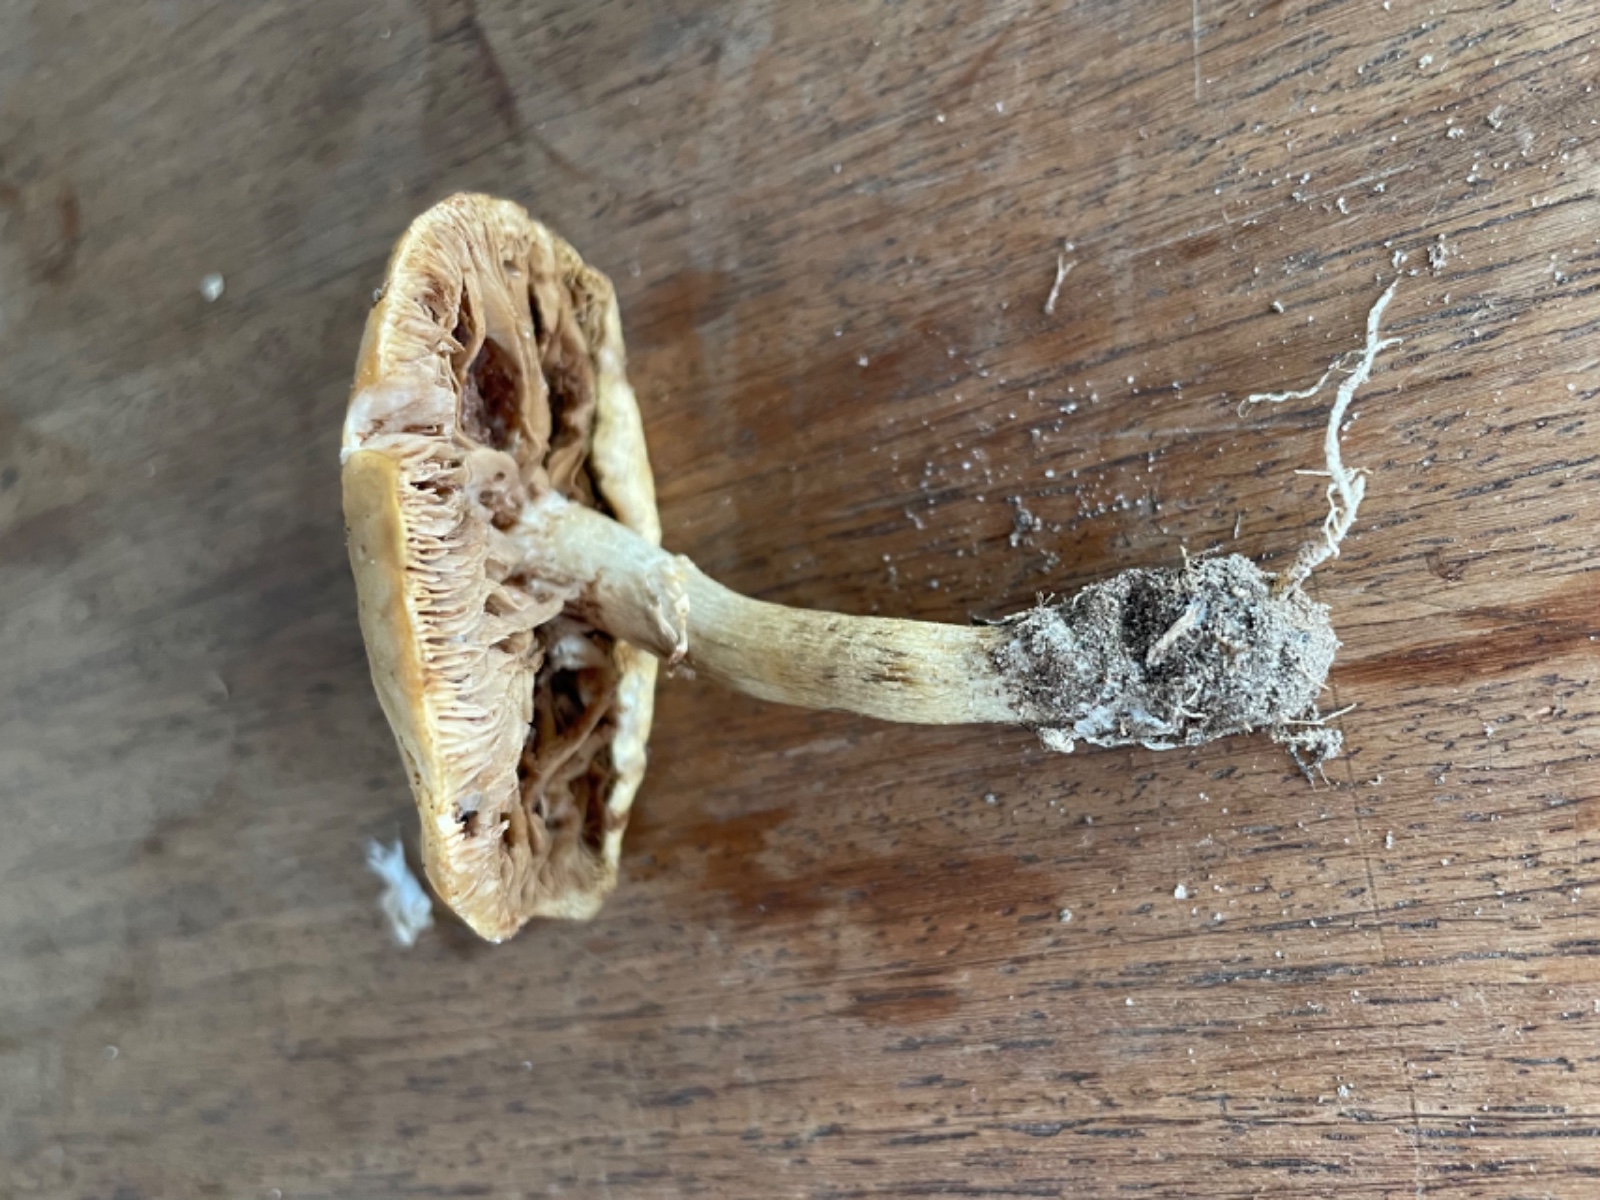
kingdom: Fungi
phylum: Basidiomycota
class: Agaricomycetes
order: Agaricales
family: Strophariaceae
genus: Agrocybe
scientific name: Agrocybe praecox
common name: tidlig agerhat
